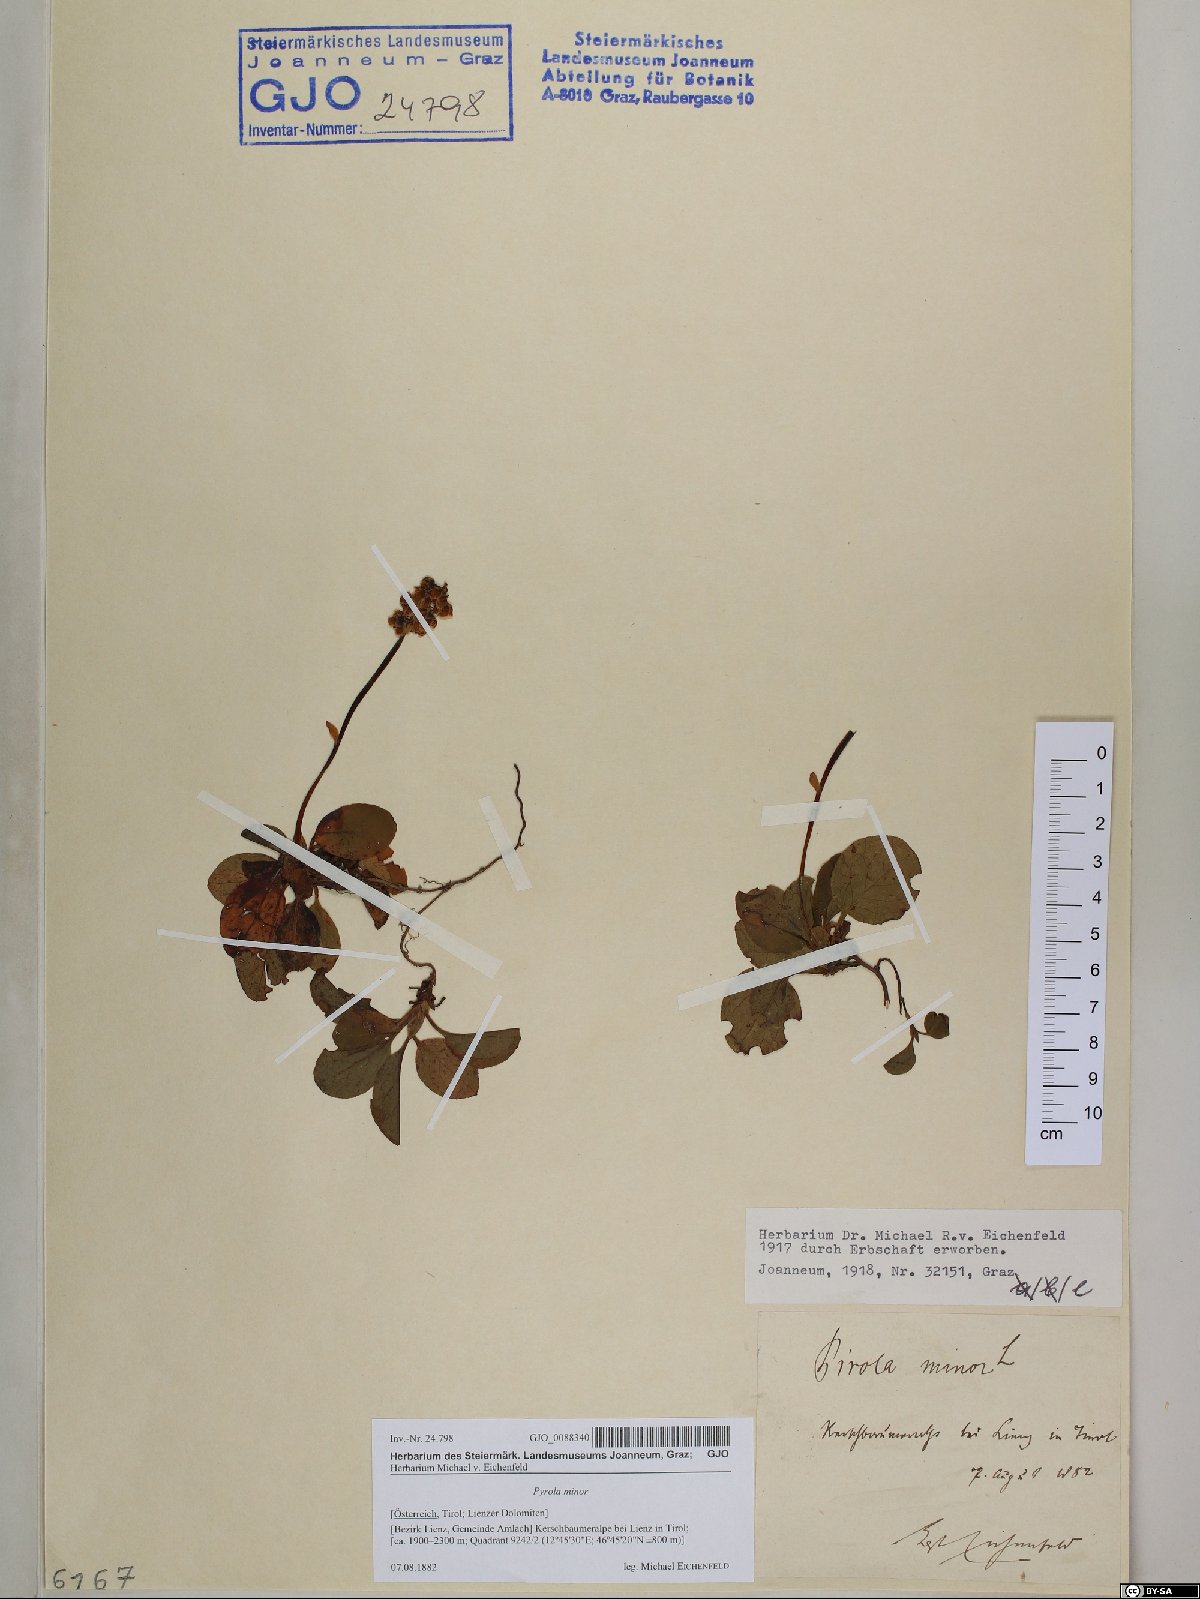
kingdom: Plantae
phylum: Tracheophyta
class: Magnoliopsida
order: Ericales
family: Ericaceae
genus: Pyrola
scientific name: Pyrola minor
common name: Common wintergreen
